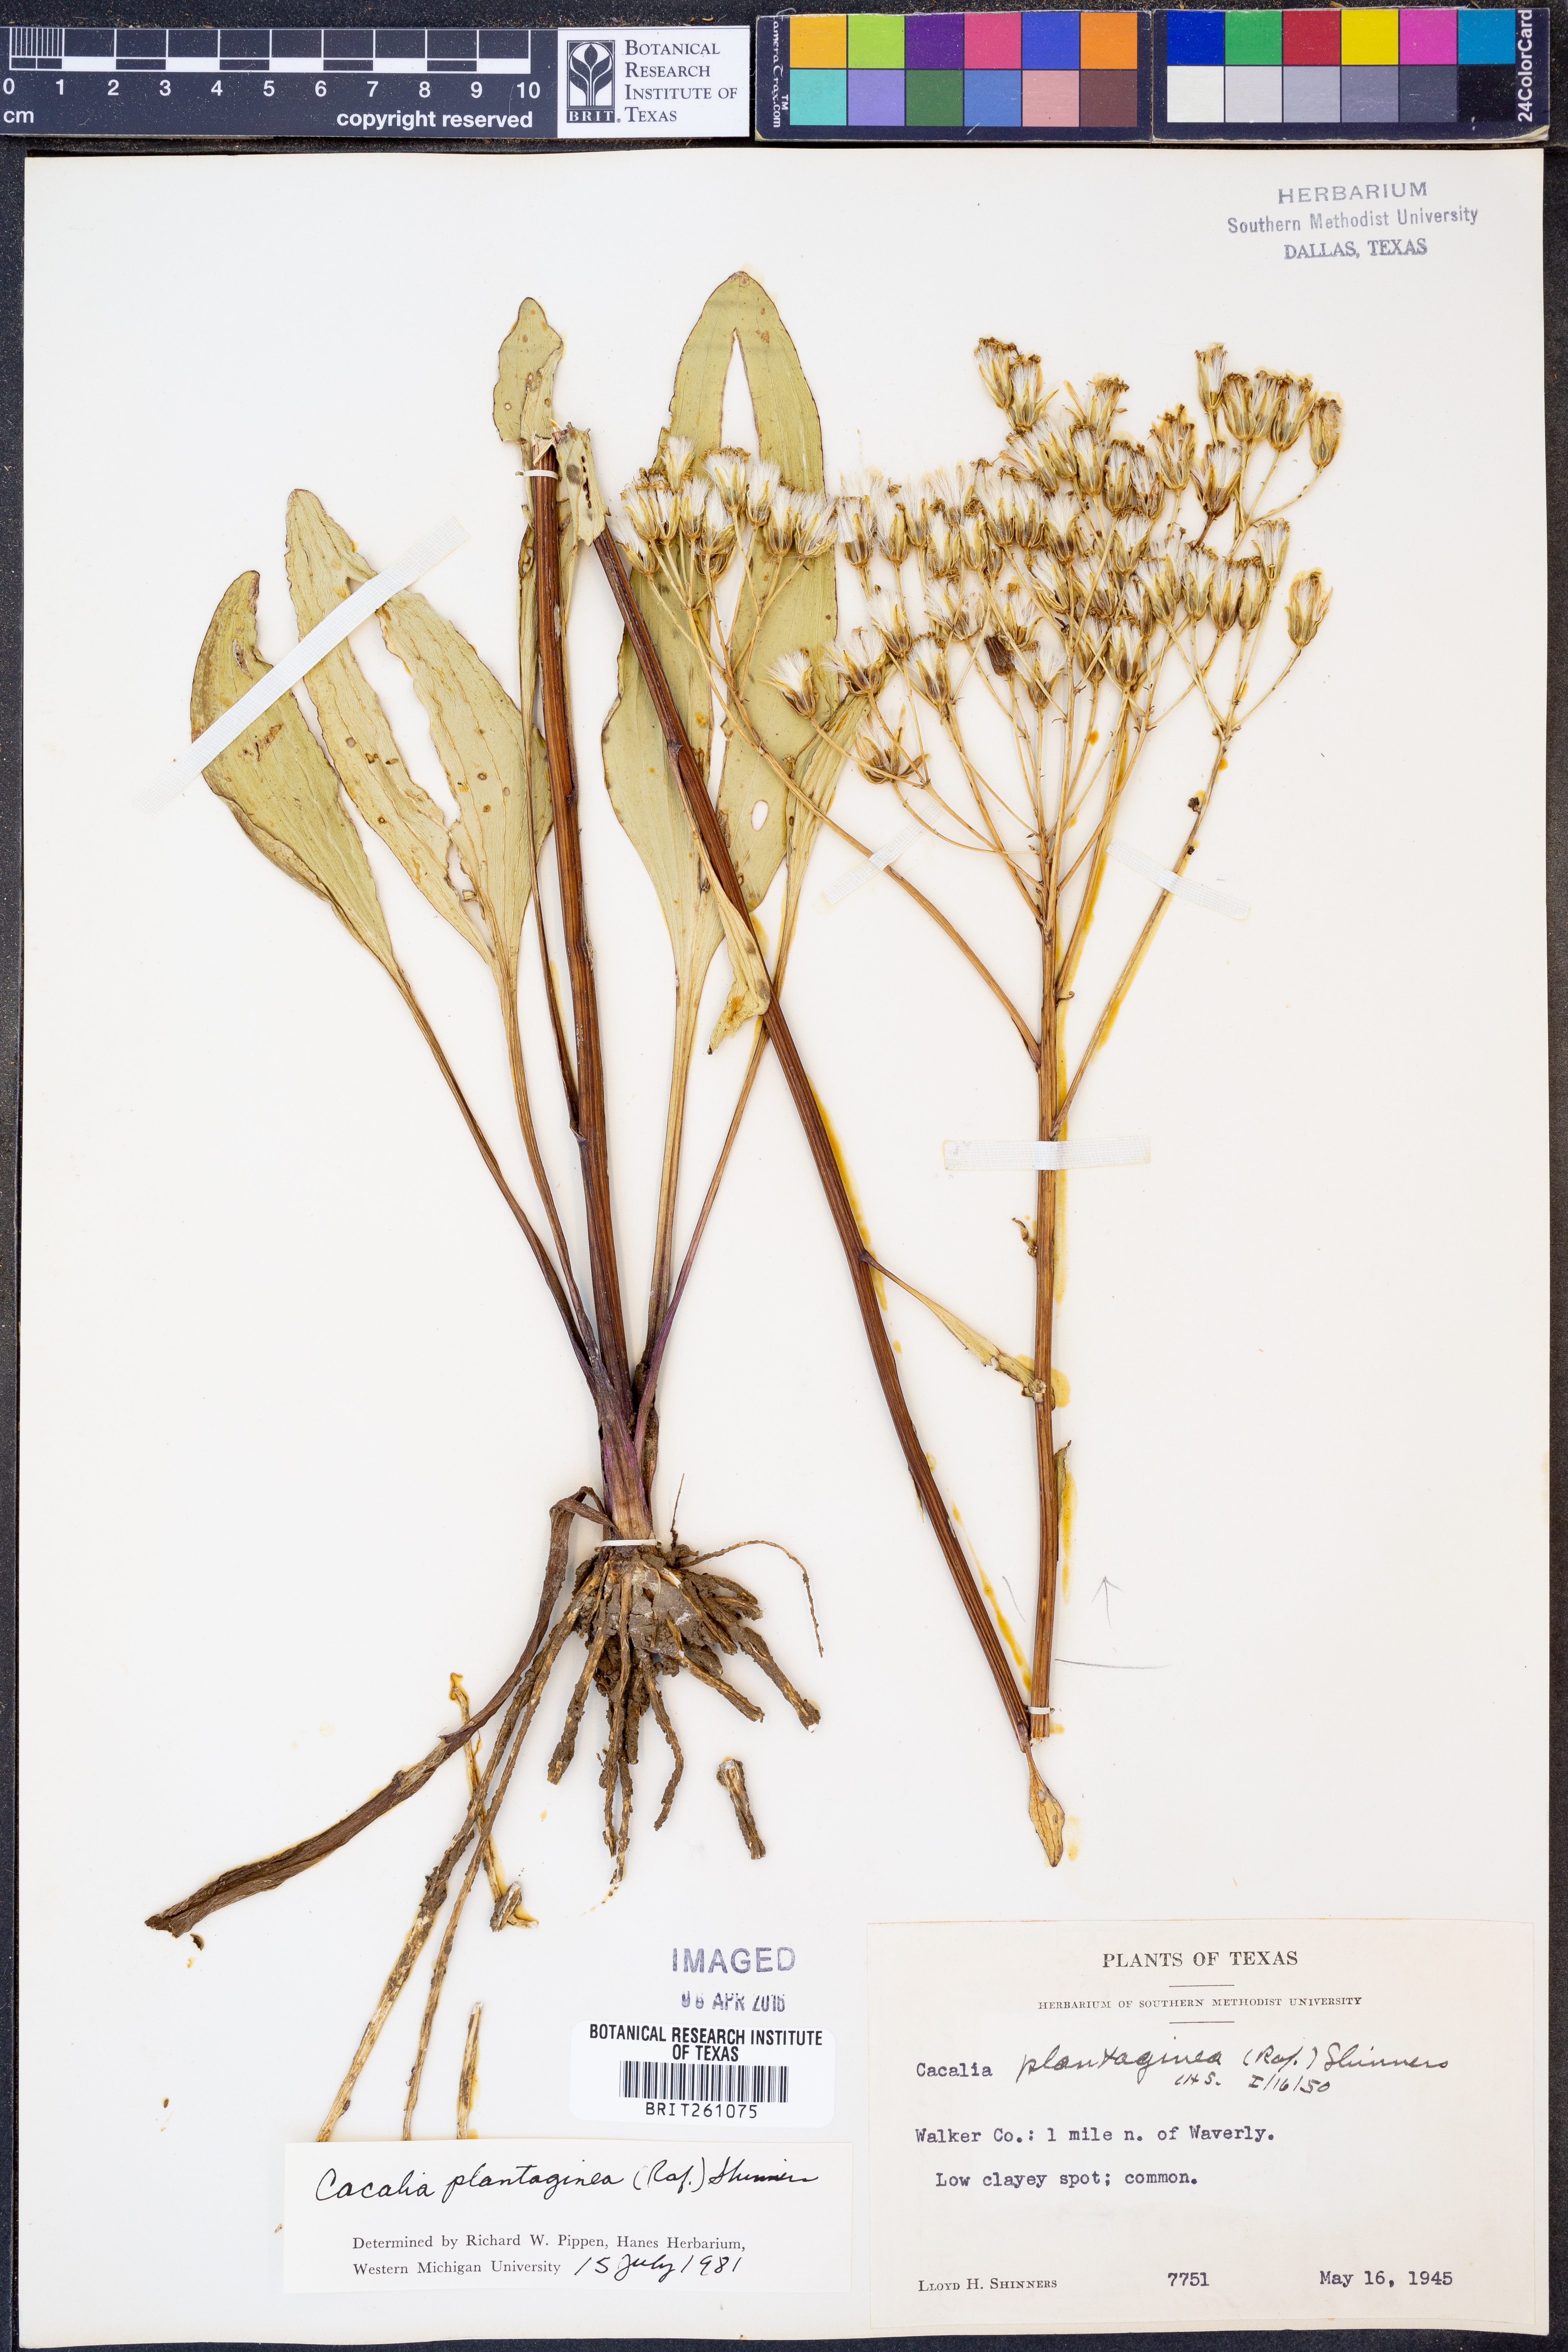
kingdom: Plantae
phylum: Tracheophyta
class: Magnoliopsida
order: Asterales
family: Asteraceae
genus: Arnoglossum
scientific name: Arnoglossum plantagineum
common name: Groove-stemmed indian-plantain
